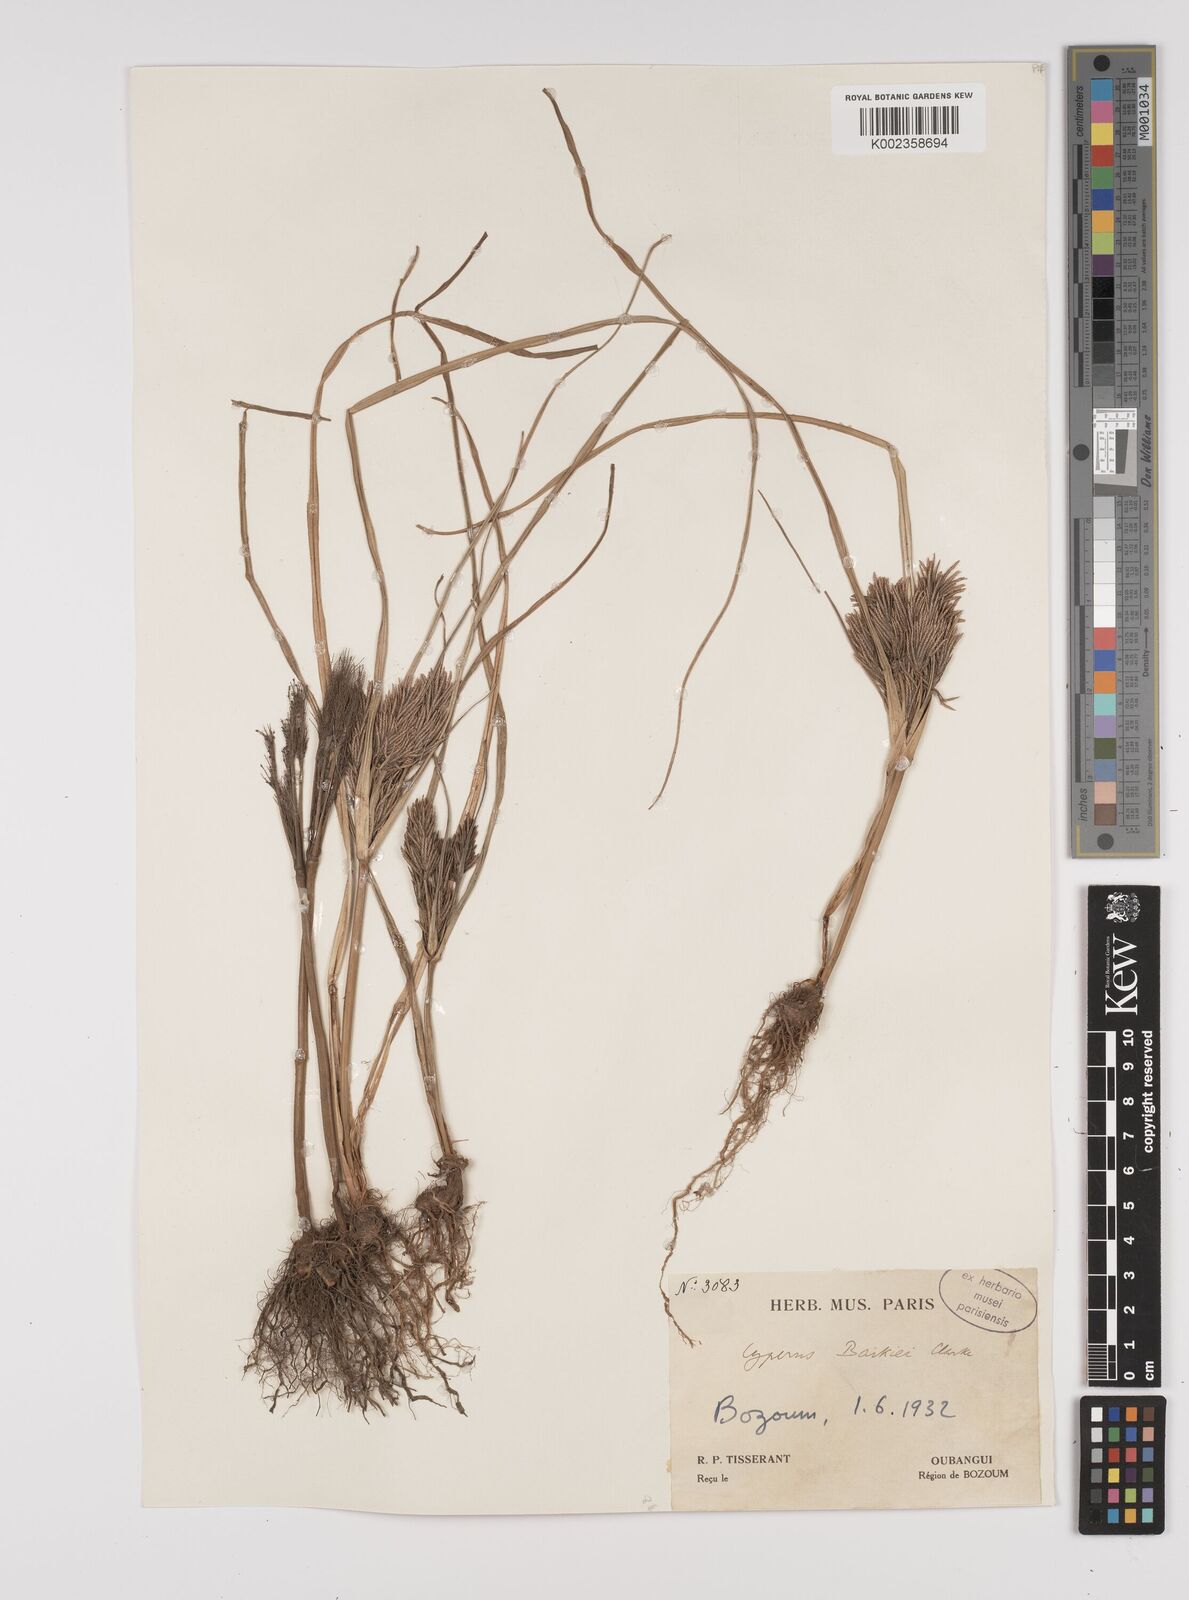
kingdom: Plantae
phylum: Tracheophyta
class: Liliopsida
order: Poales
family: Cyperaceae
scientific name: Cyperaceae
